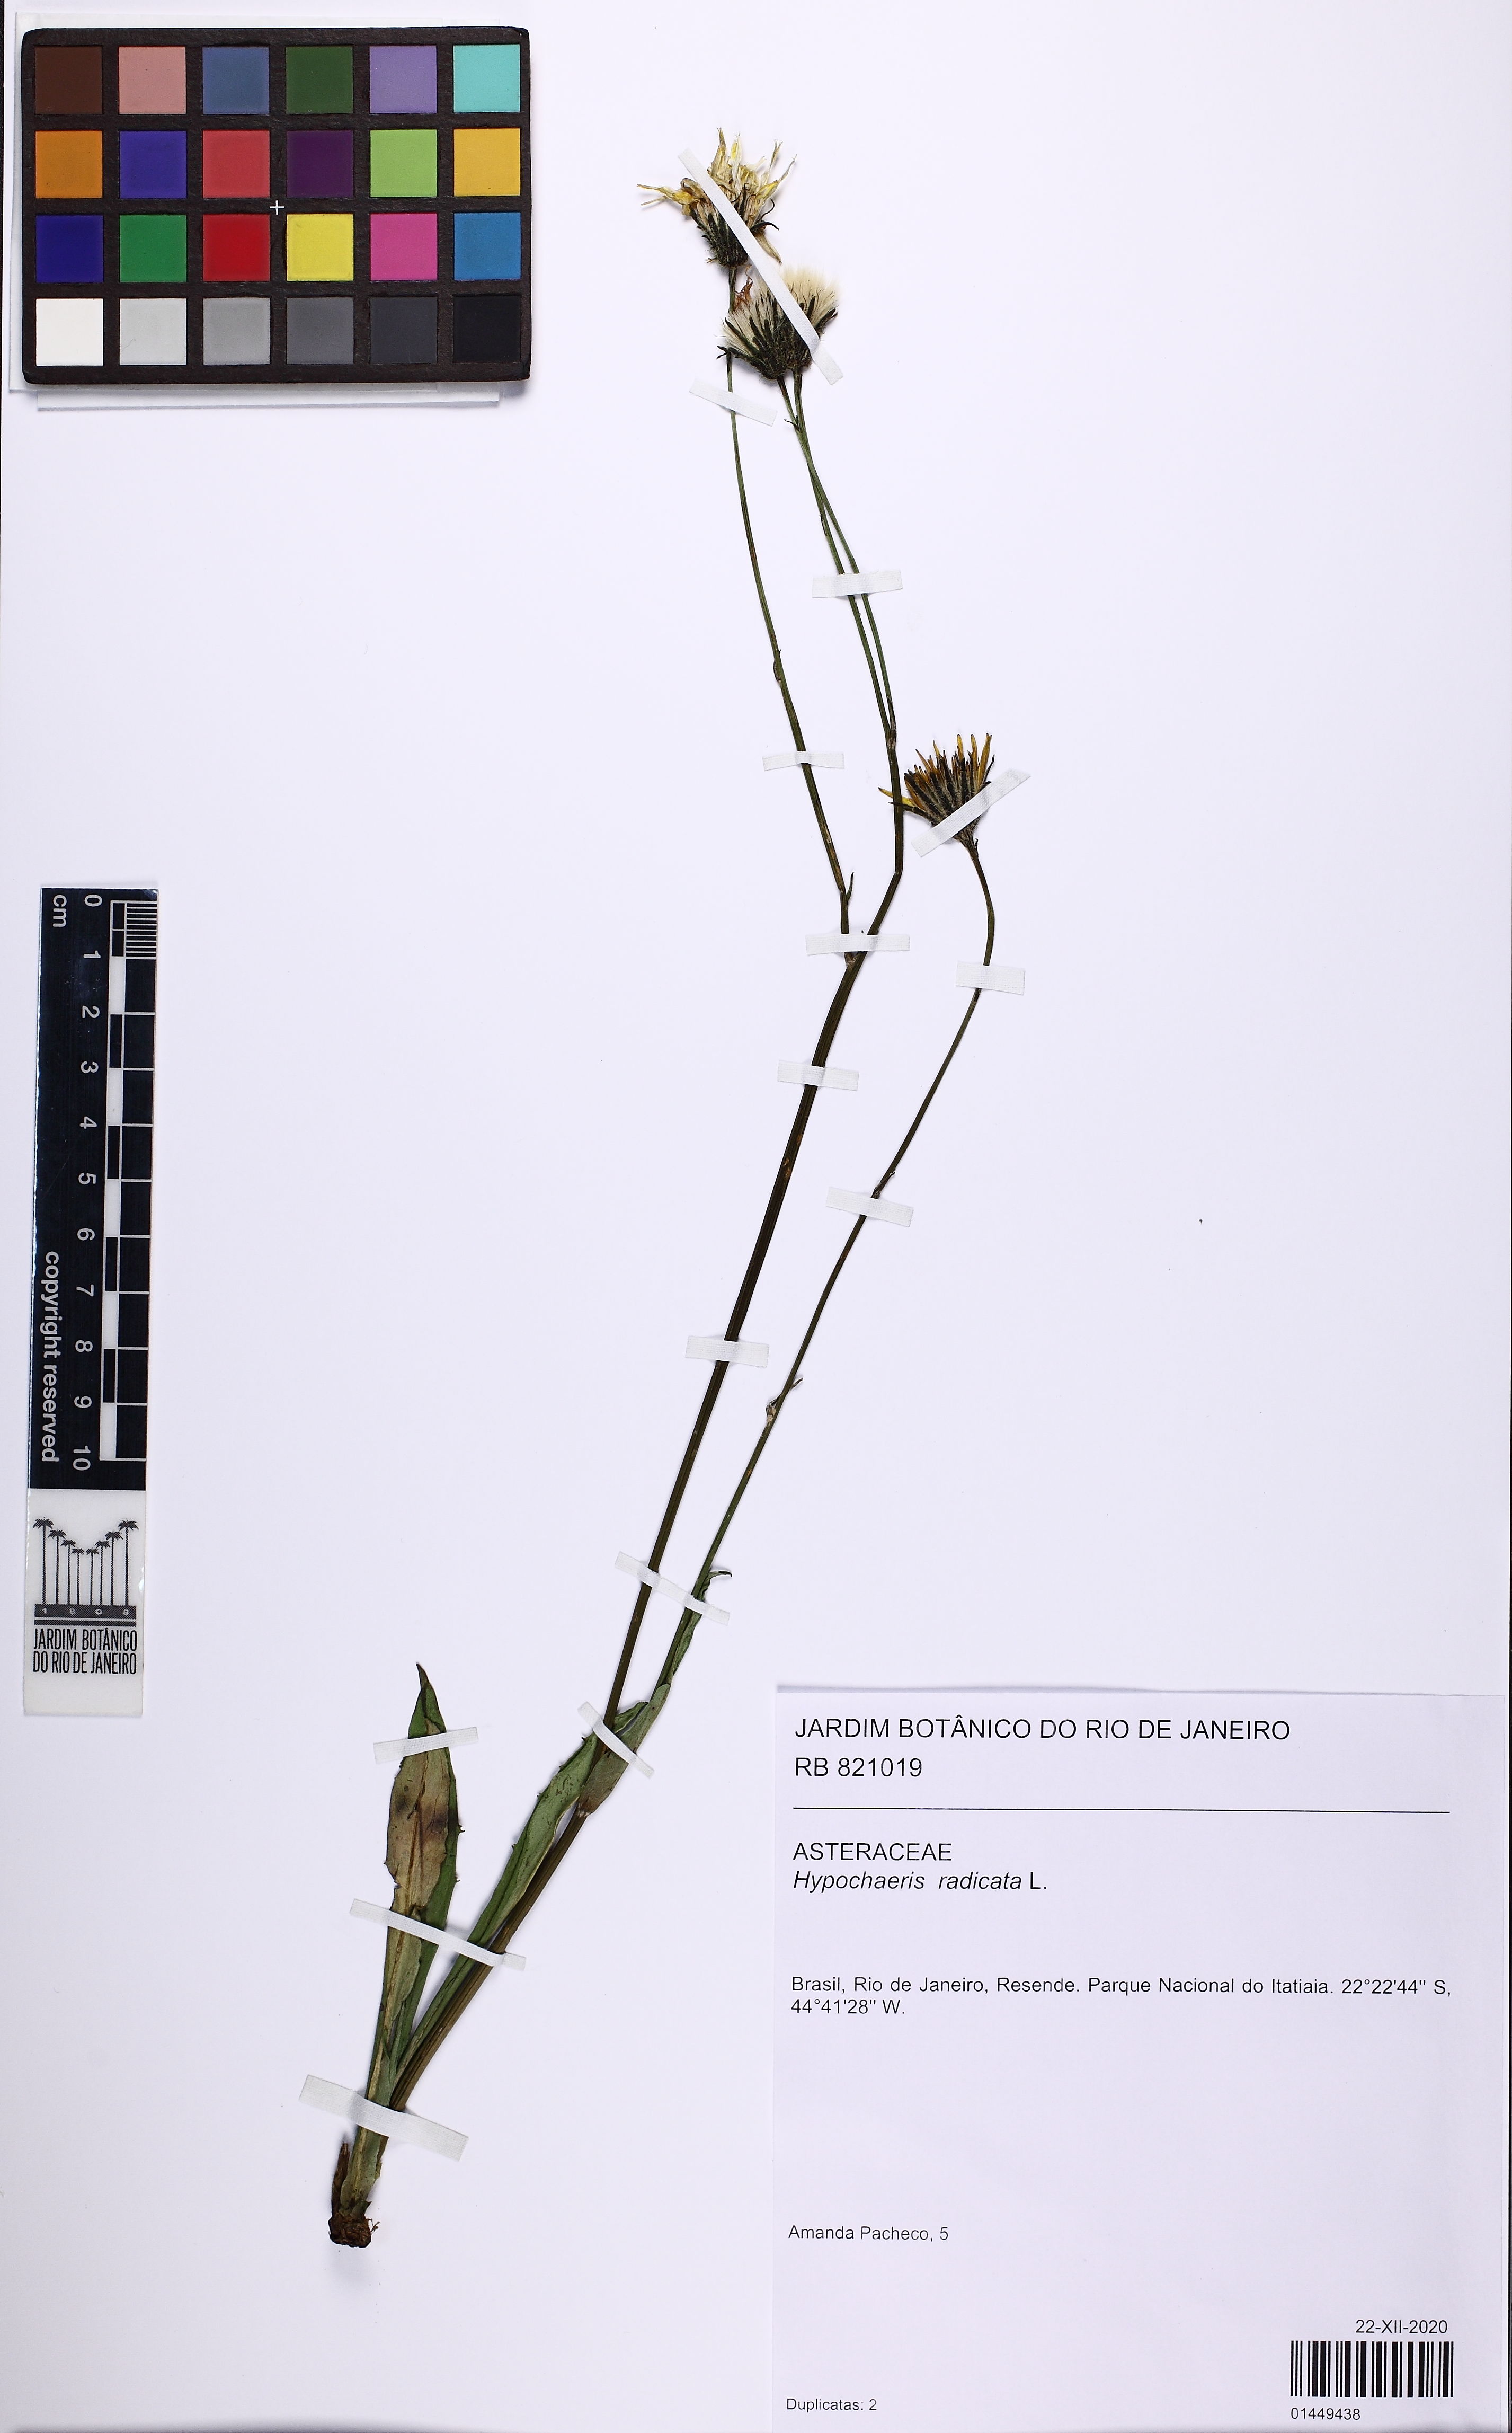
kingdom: Plantae
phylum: Tracheophyta
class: Magnoliopsida
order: Asterales
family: Asteraceae
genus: Hypochaeris
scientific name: Hypochaeris radicata
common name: Flatweed
